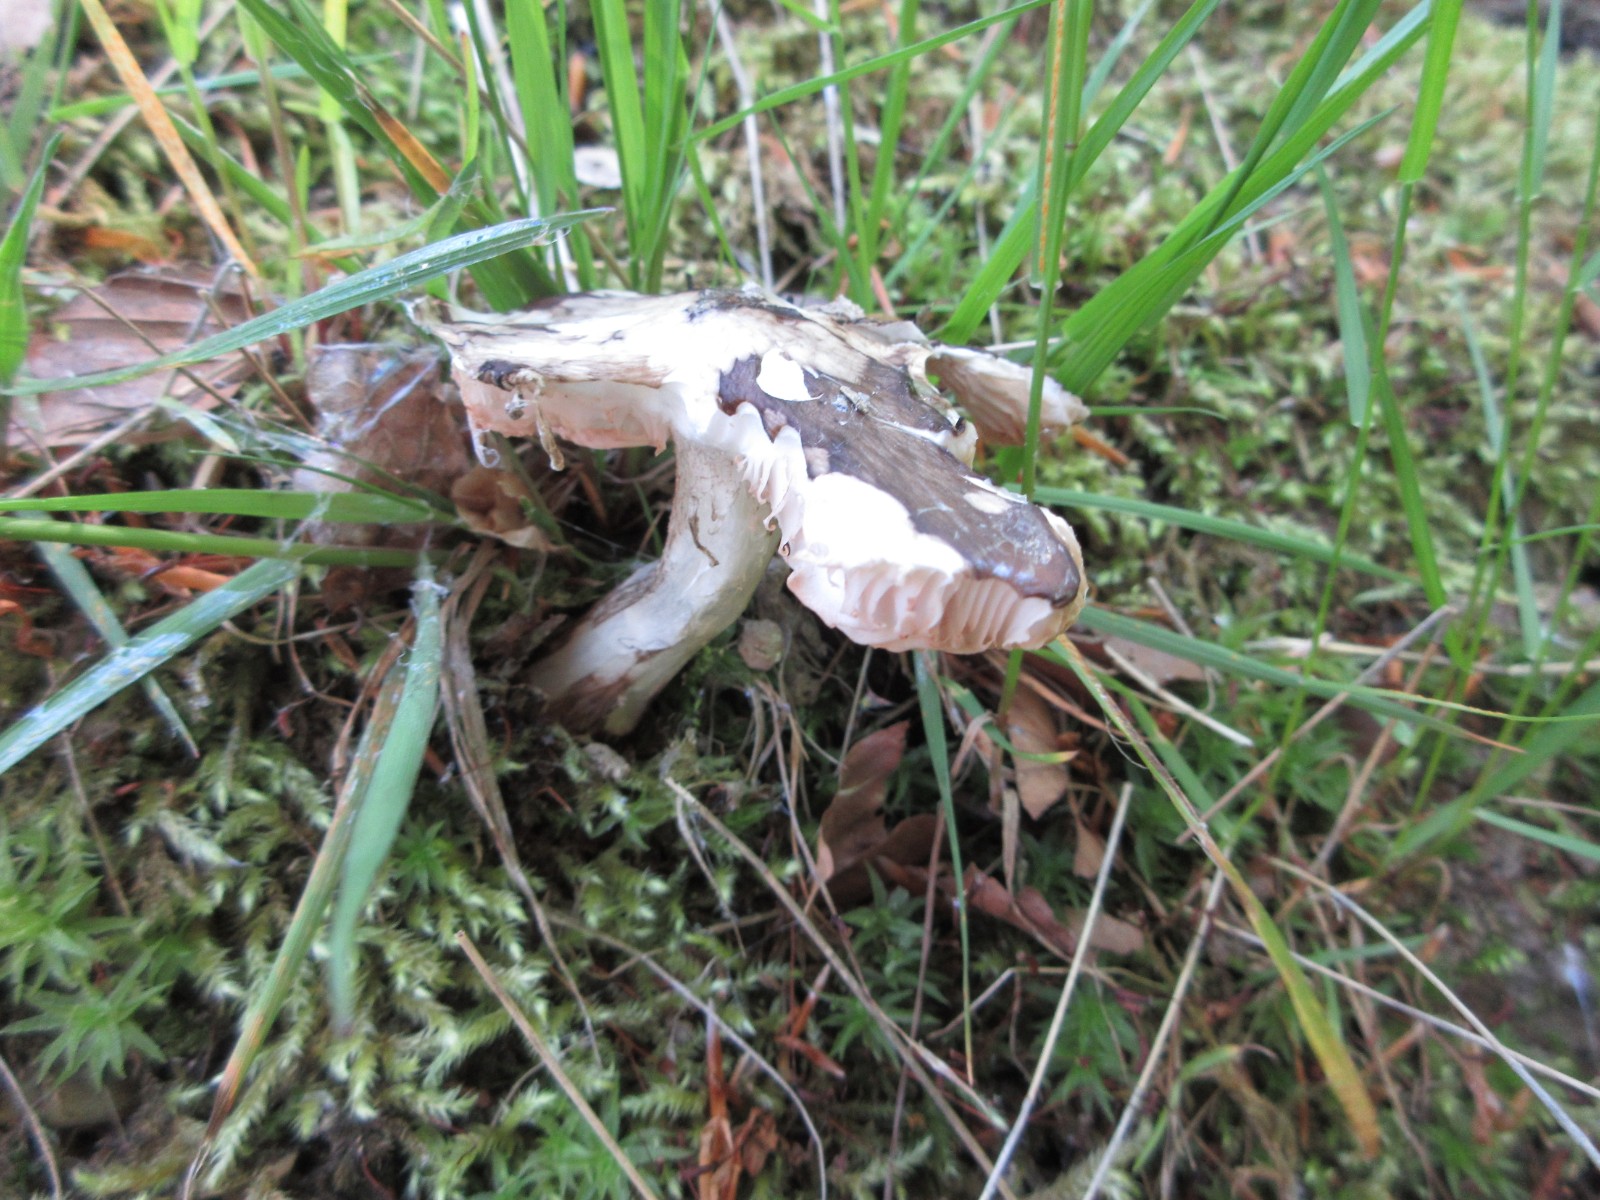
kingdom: Fungi
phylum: Basidiomycota
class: Agaricomycetes
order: Agaricales
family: Pluteaceae
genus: Pluteus
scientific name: Pluteus cervinus
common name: sodfarvet skærmhat
